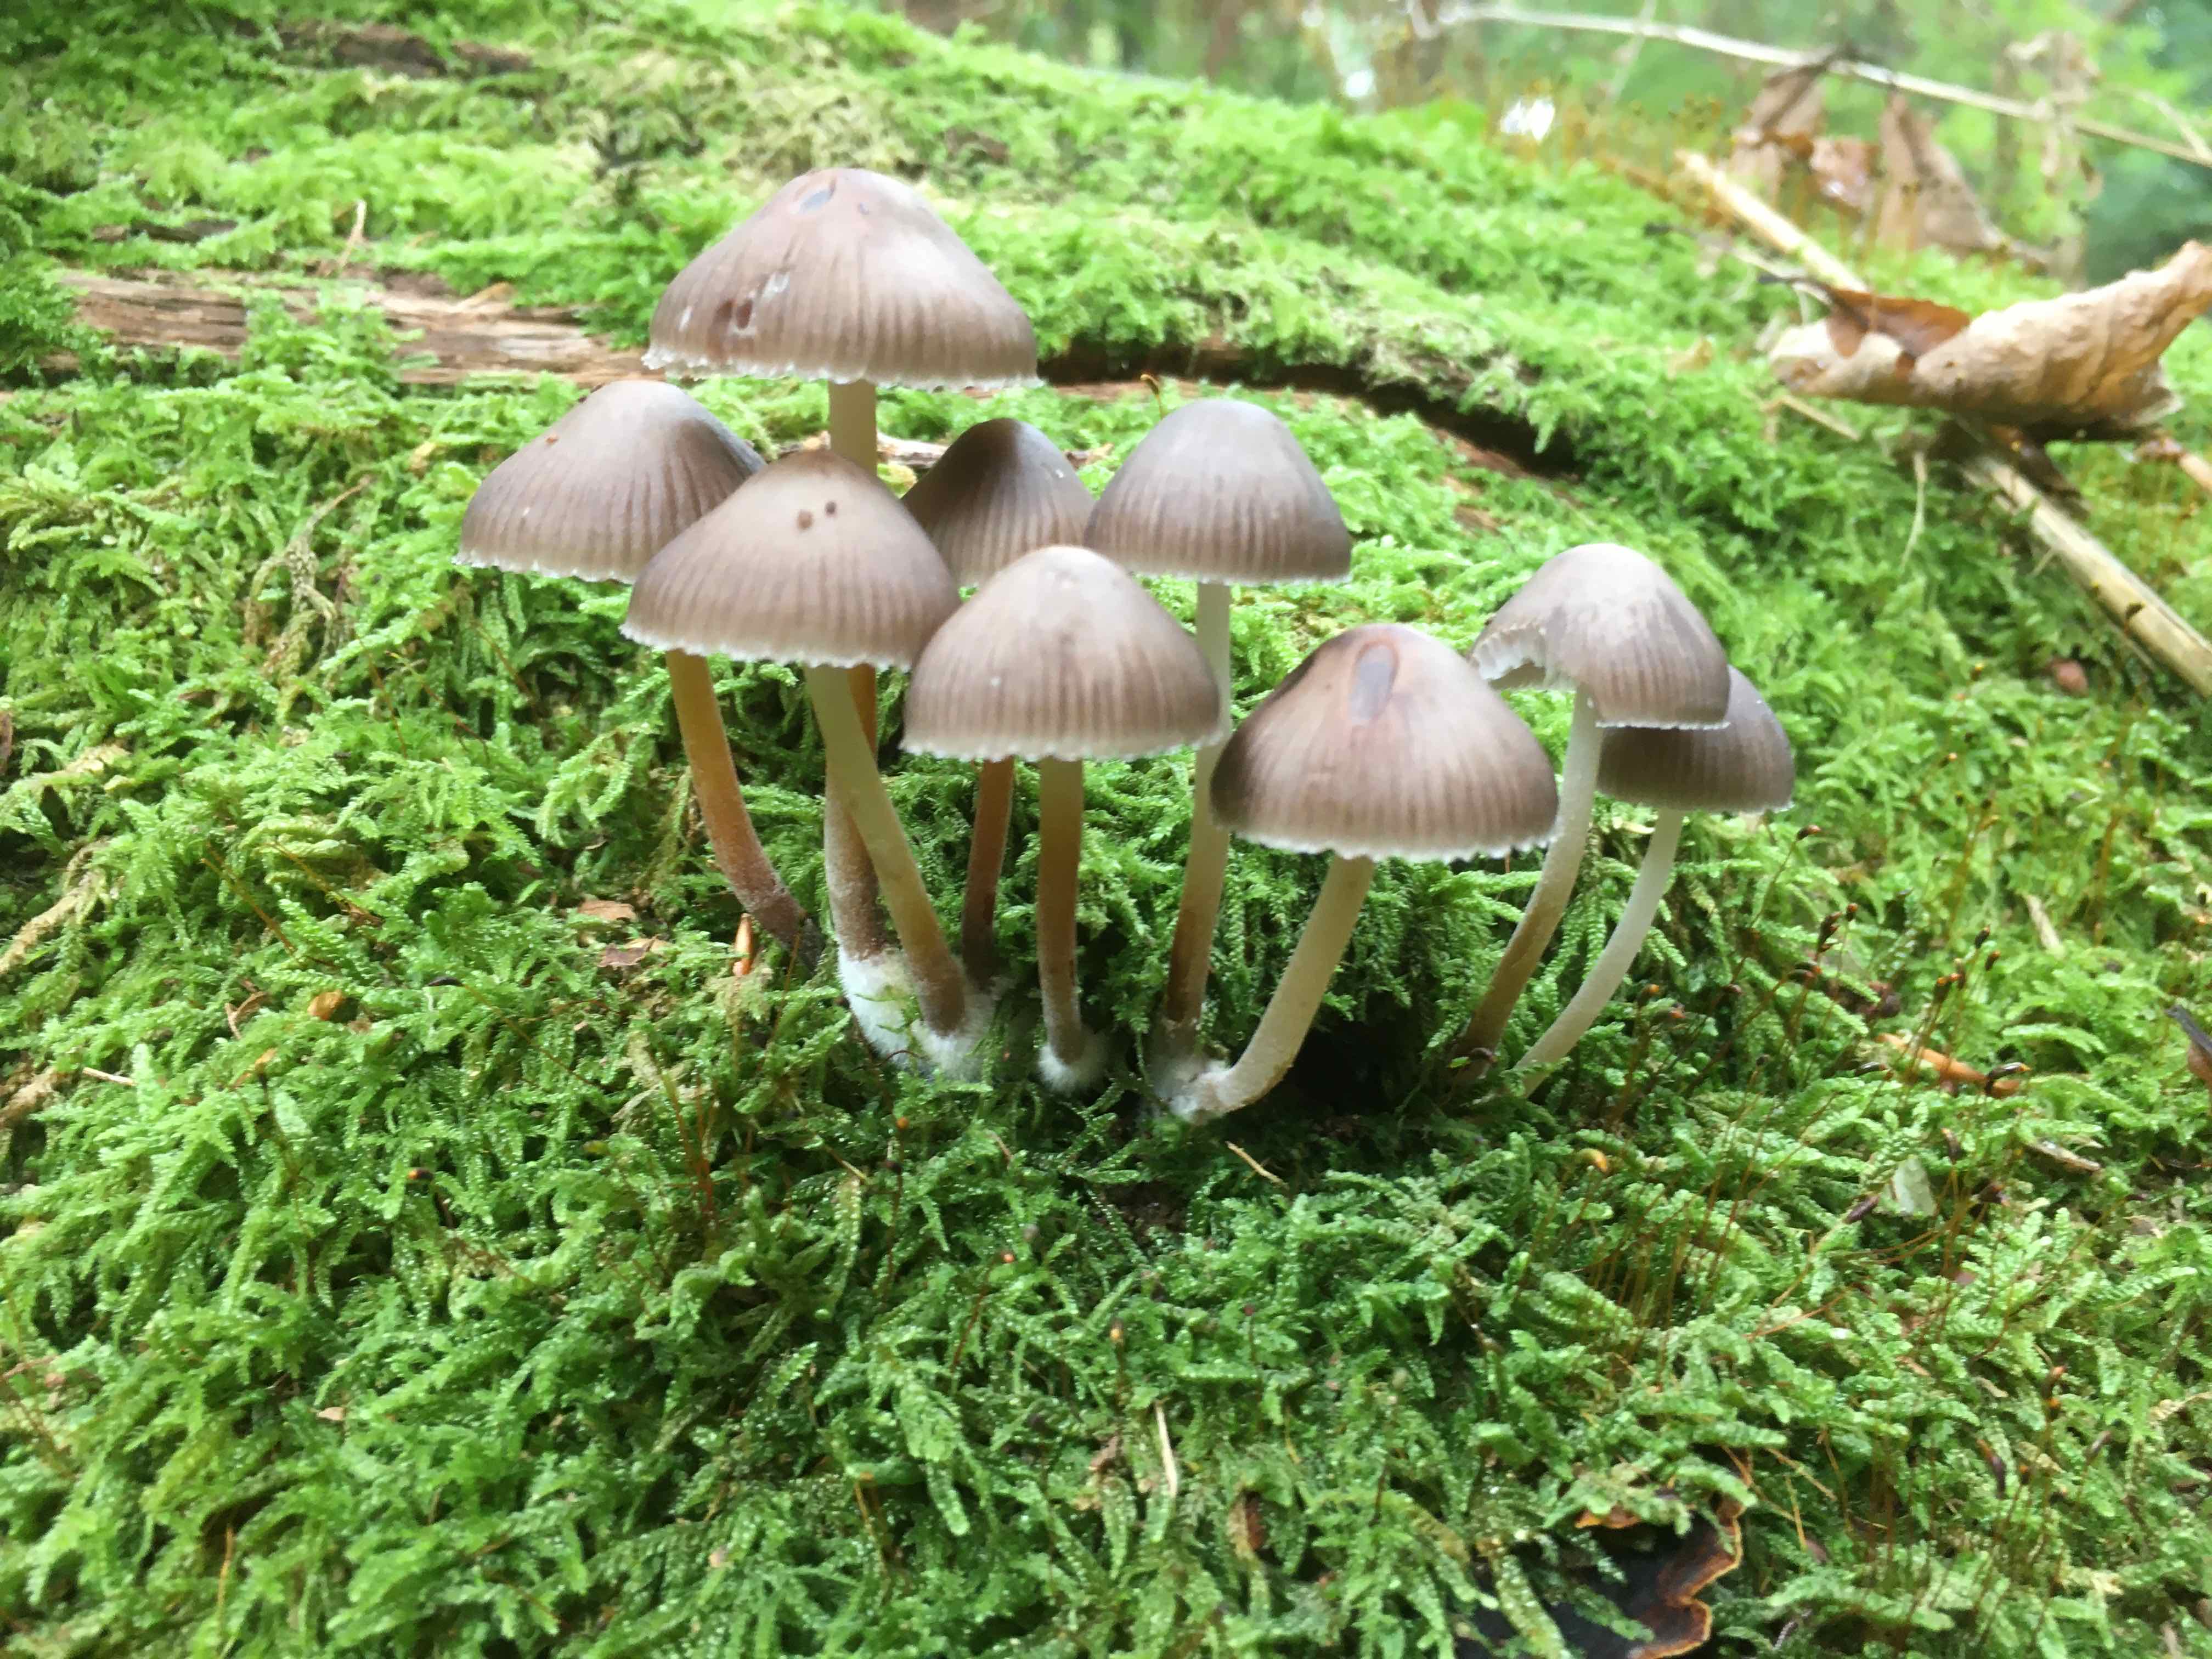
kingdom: Fungi
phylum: Basidiomycota
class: Agaricomycetes
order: Agaricales
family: Mycenaceae
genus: Mycena
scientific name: Mycena inclinata
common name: nikkende huesvamp
